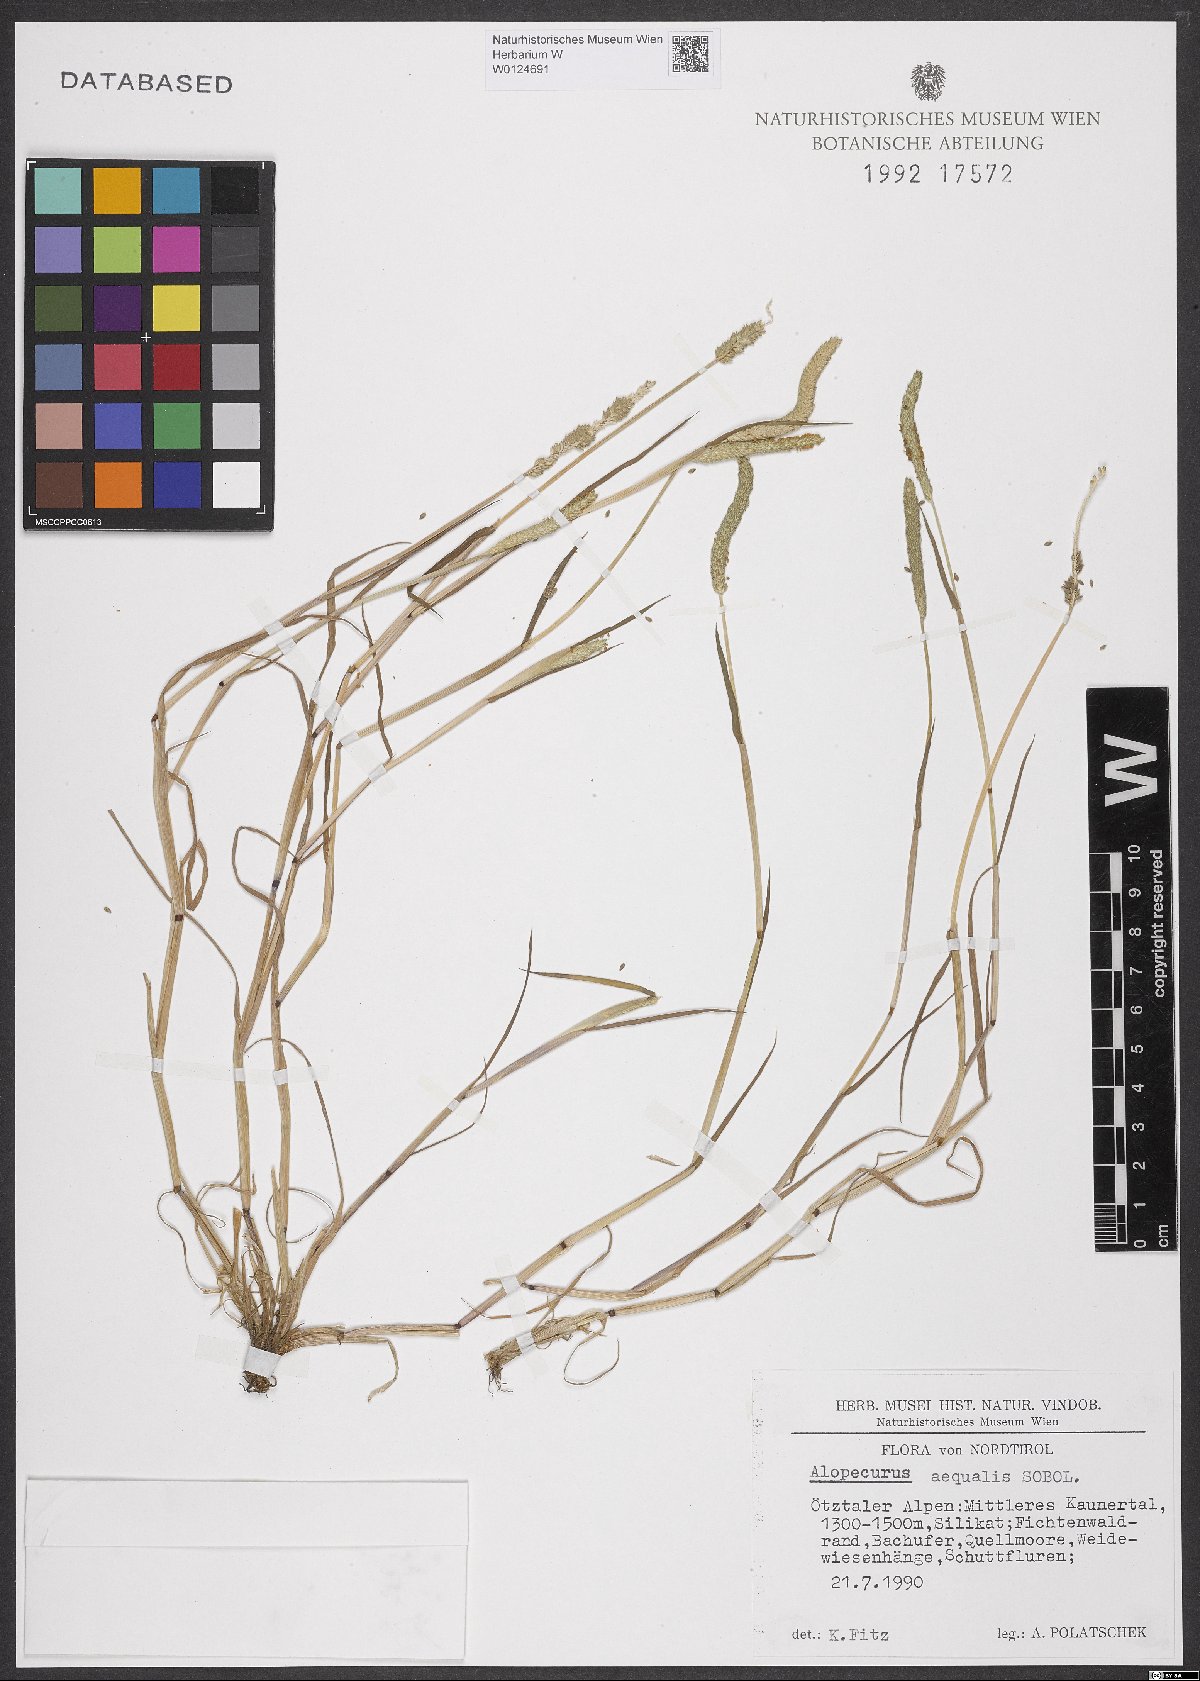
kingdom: Plantae
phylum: Tracheophyta
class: Liliopsida
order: Poales
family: Poaceae
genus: Alopecurus
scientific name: Alopecurus aequalis
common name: Orange foxtail
